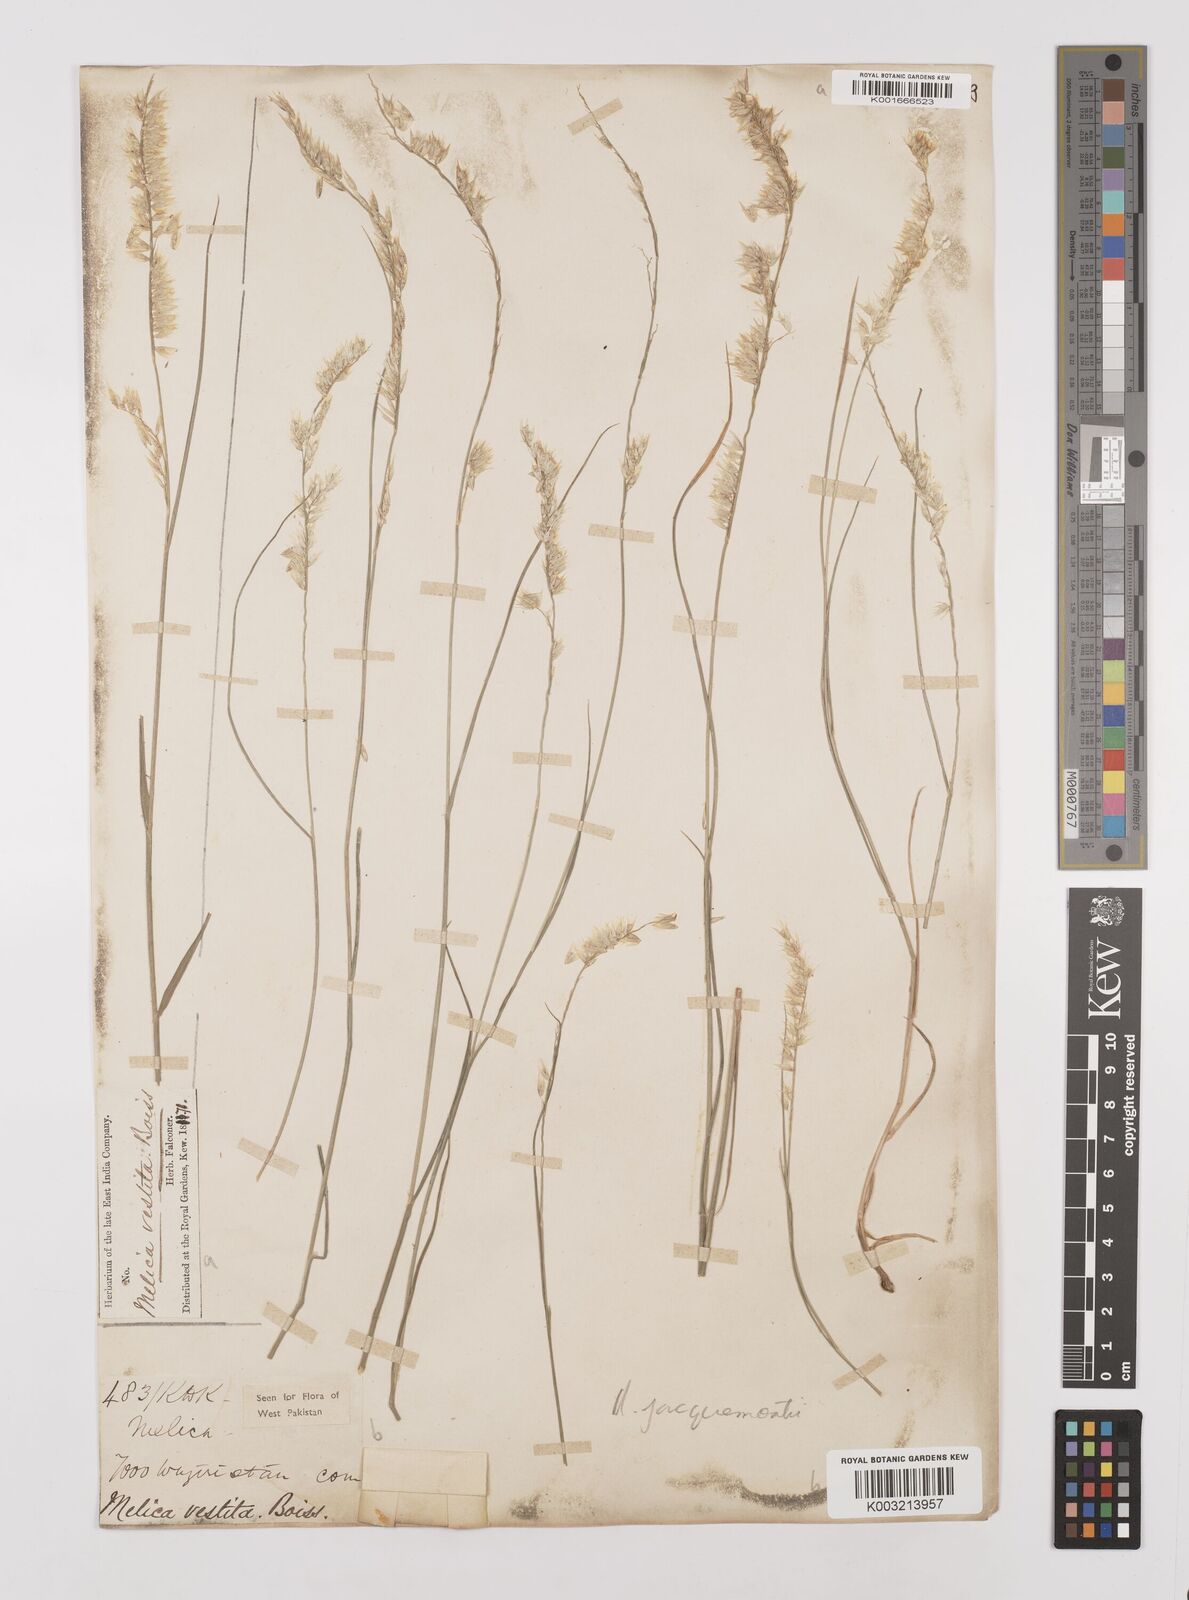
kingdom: Plantae
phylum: Tracheophyta
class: Liliopsida
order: Poales
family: Poaceae
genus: Melica
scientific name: Melica persica
